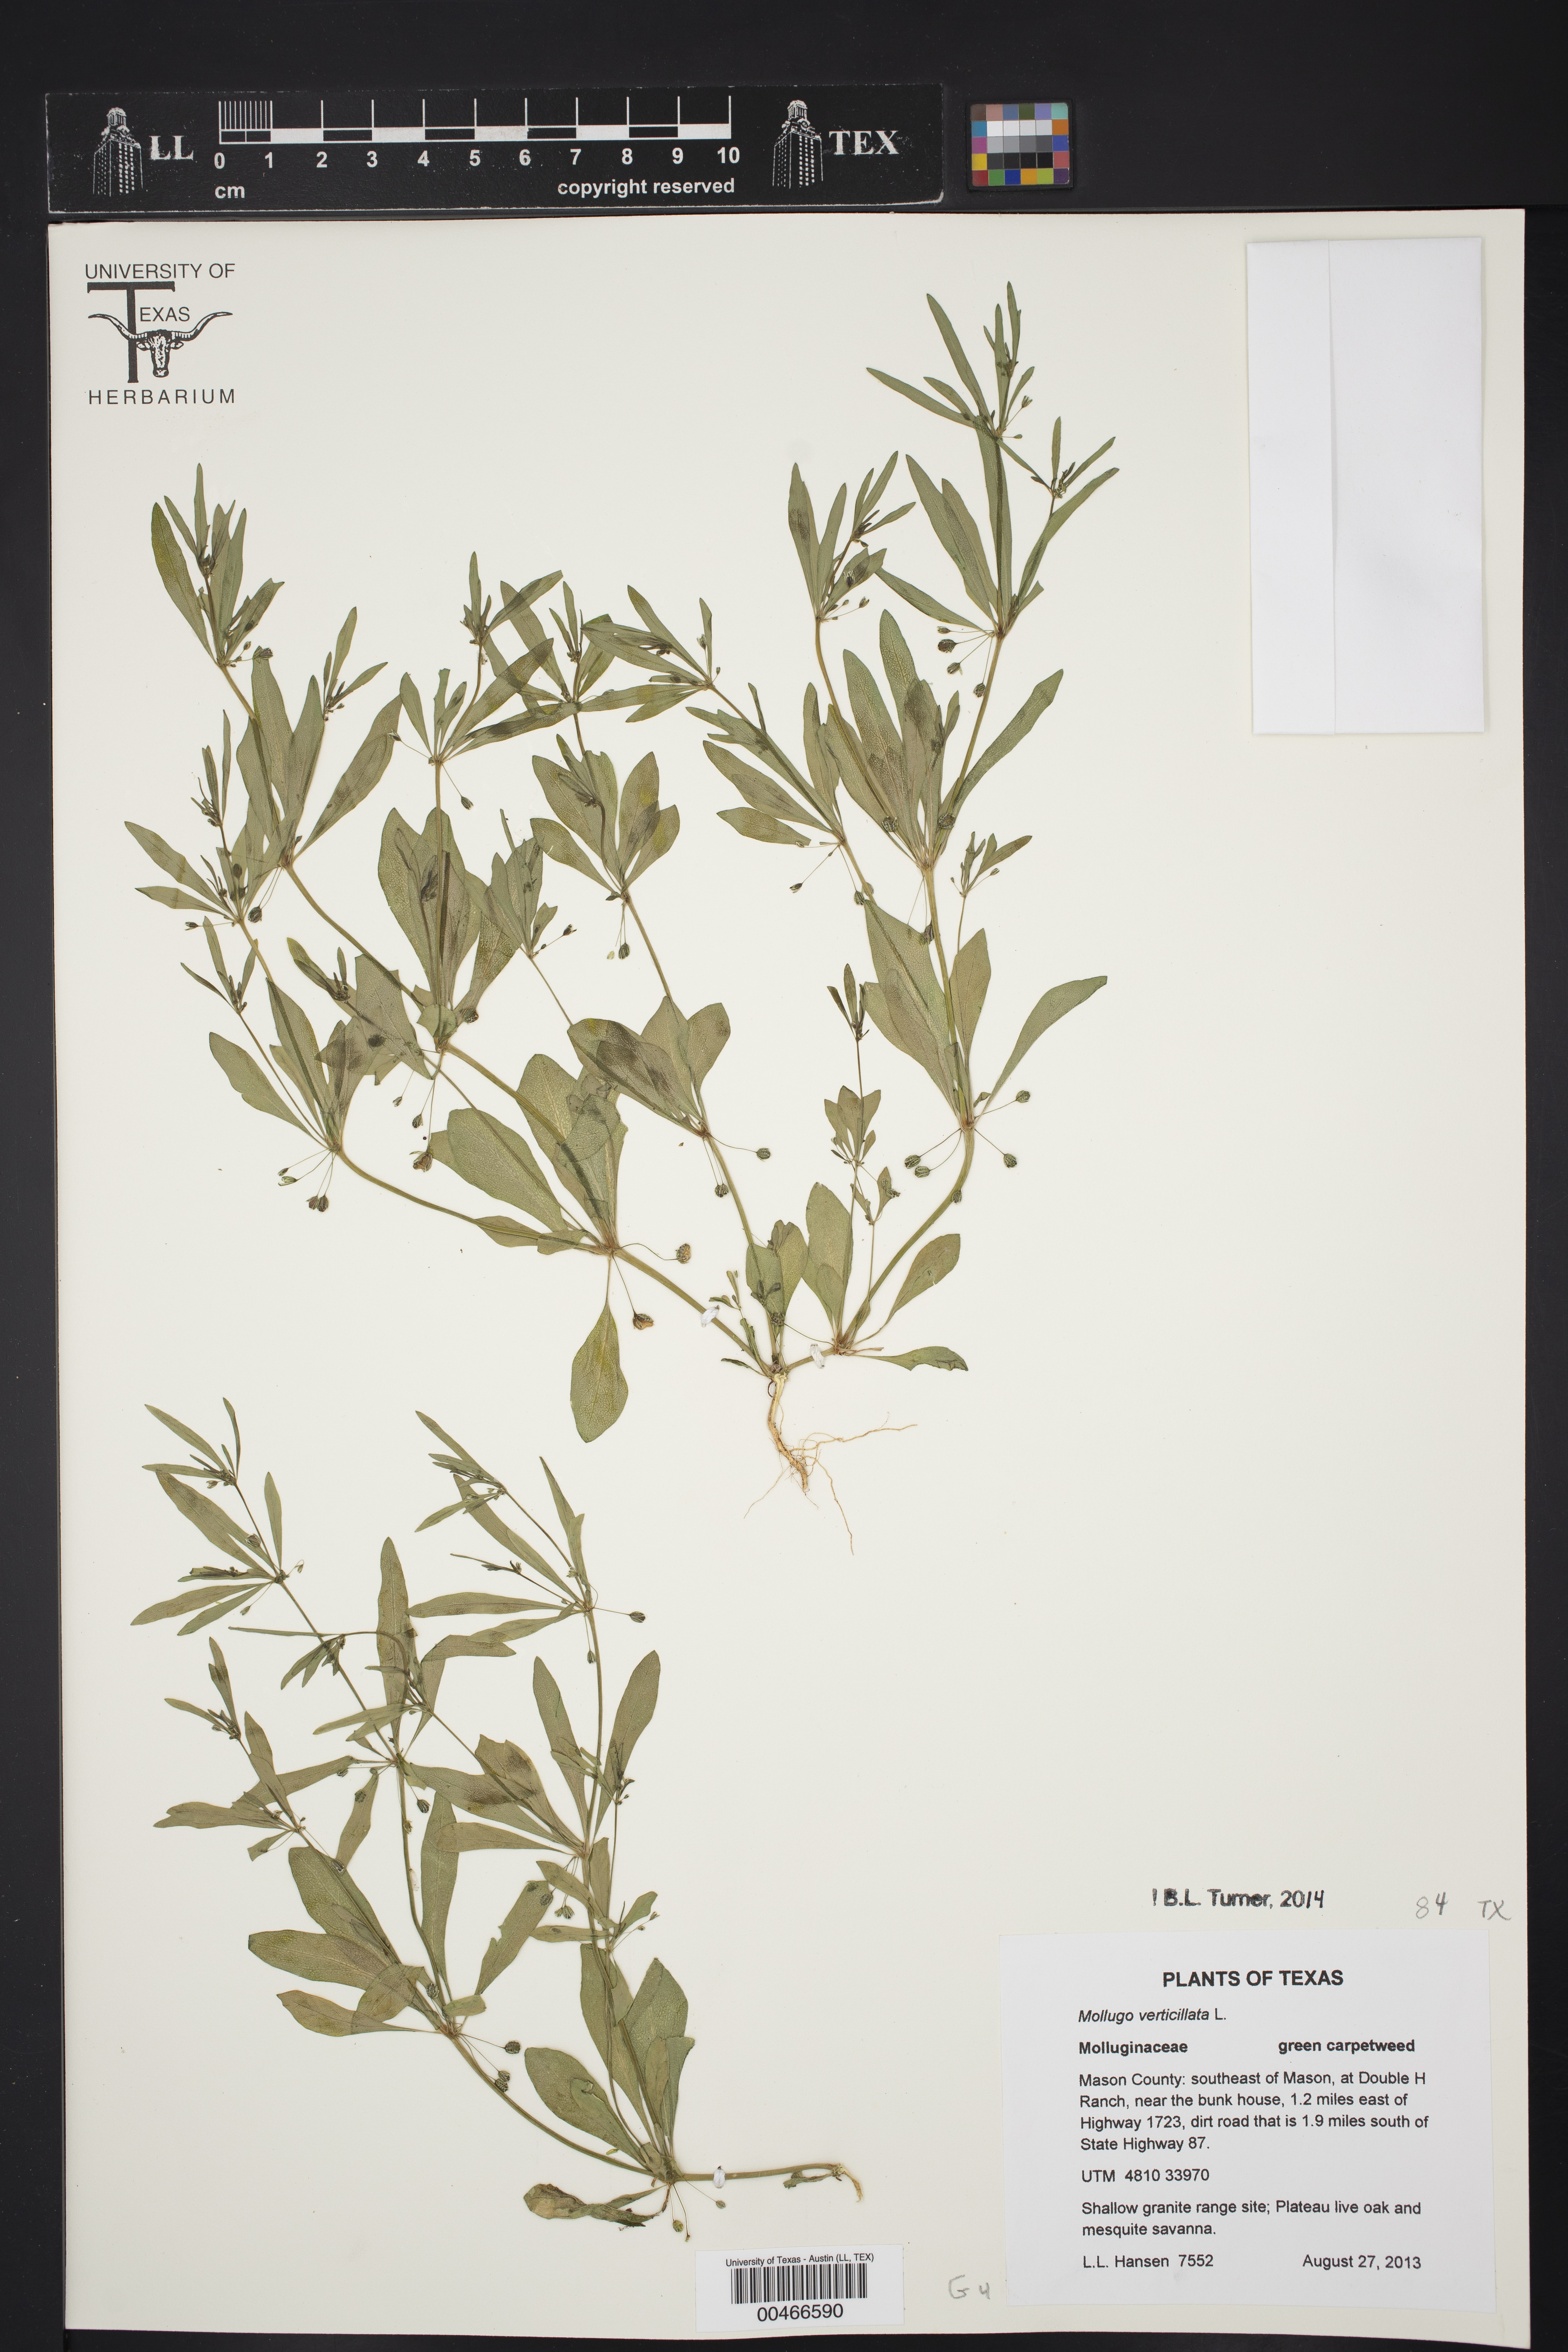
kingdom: Plantae
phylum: Tracheophyta
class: Magnoliopsida
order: Caryophyllales
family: Molluginaceae
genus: Mollugo
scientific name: Mollugo verticillata
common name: Green carpetweed
